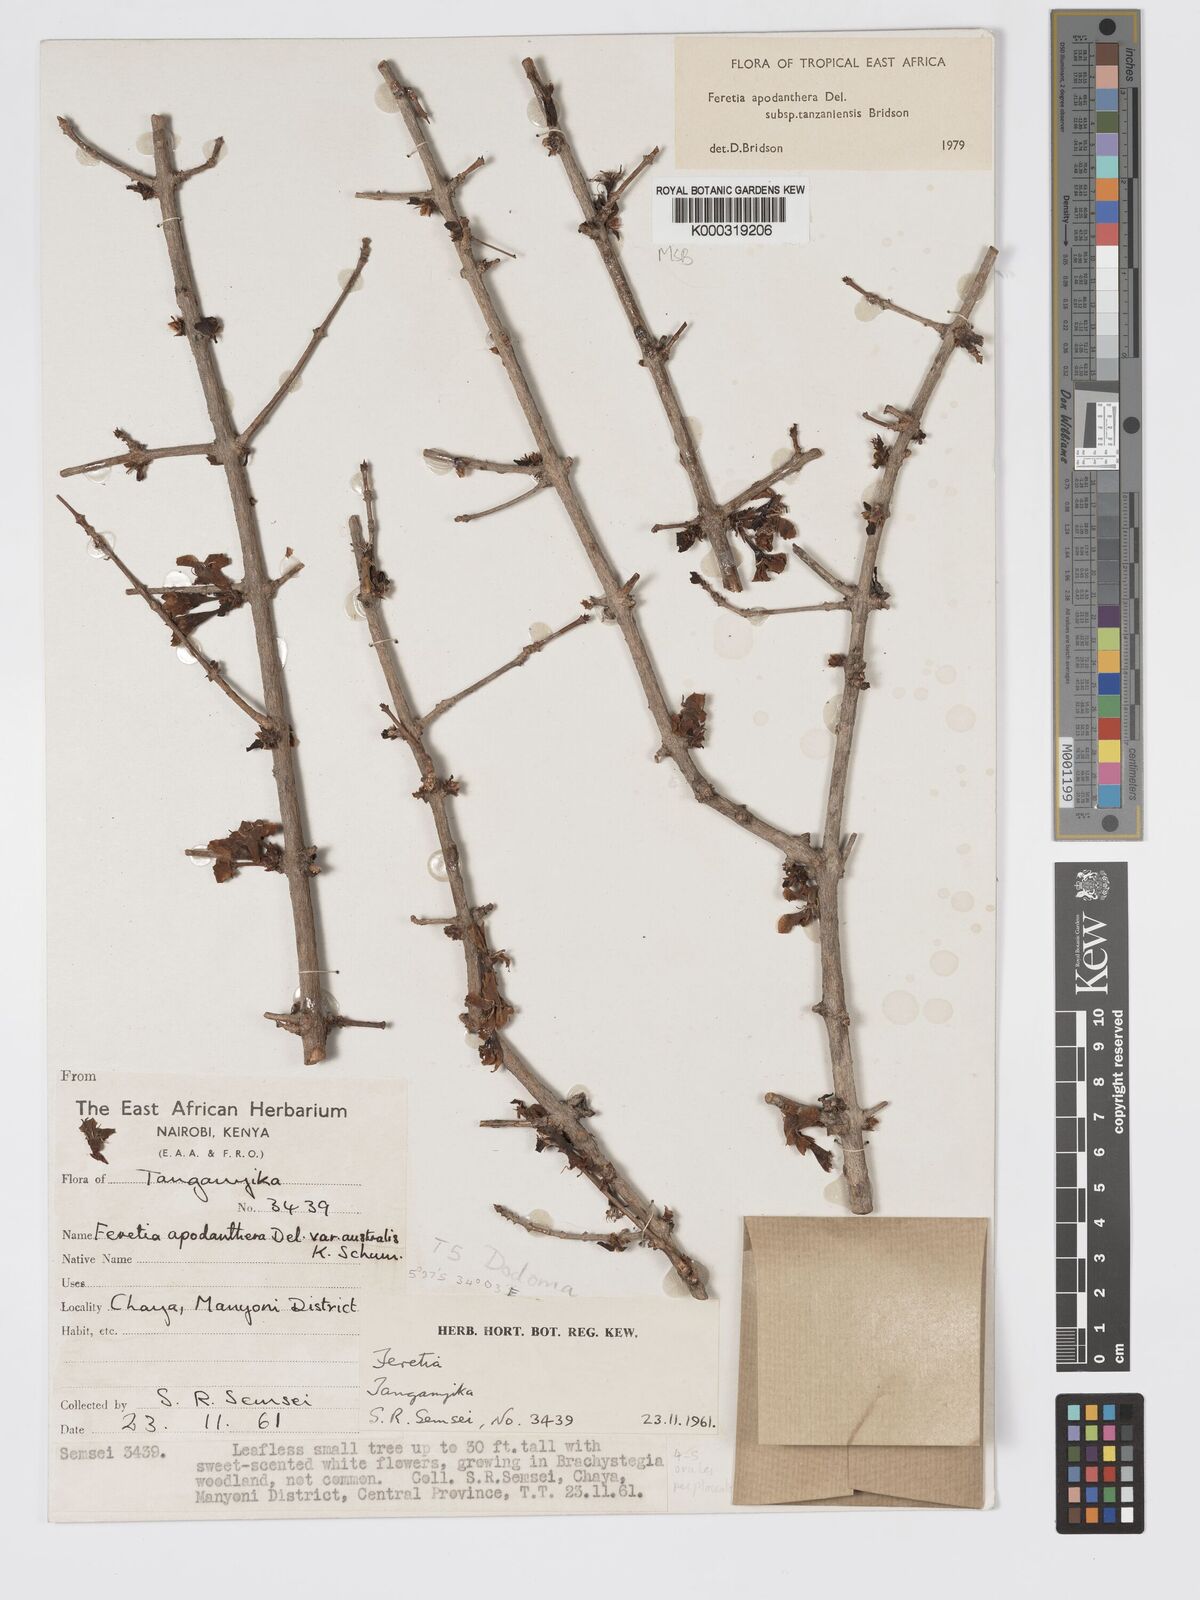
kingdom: Plantae
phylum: Tracheophyta
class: Magnoliopsida
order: Gentianales
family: Rubiaceae
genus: Feretia
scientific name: Feretia apodanthera
